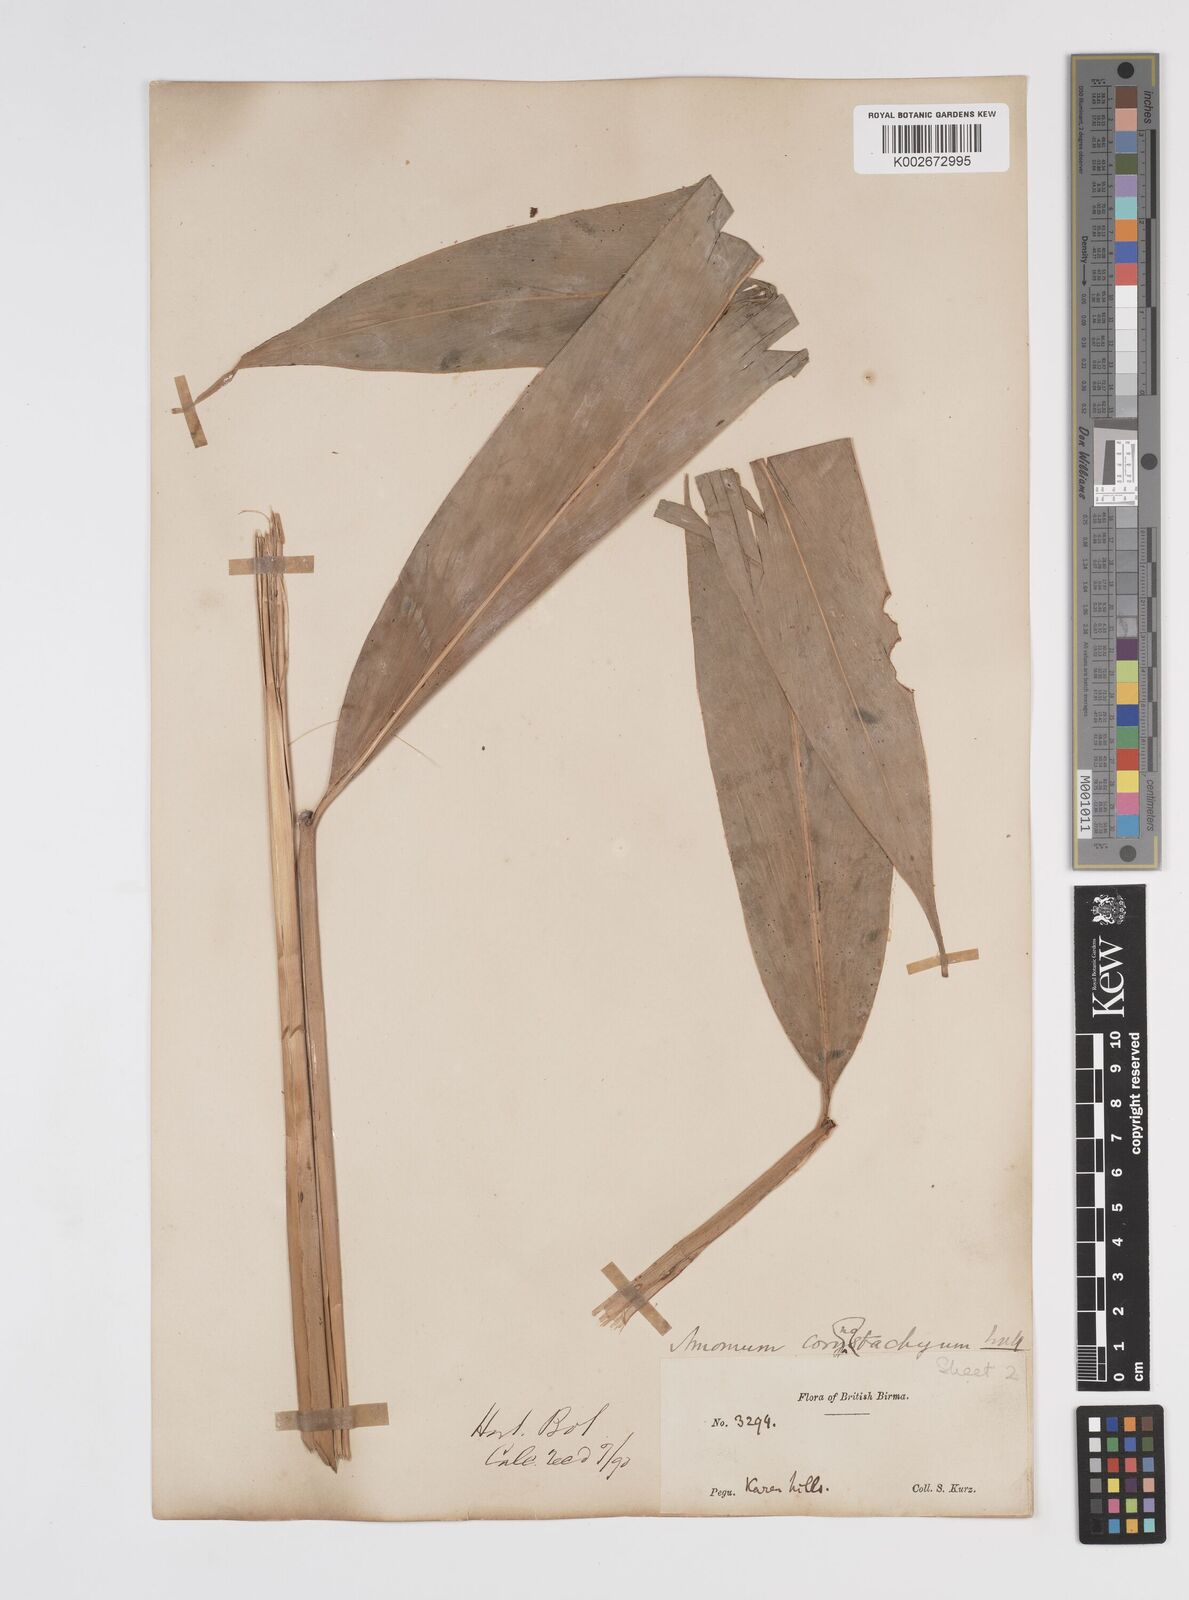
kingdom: Plantae
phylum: Tracheophyta
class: Liliopsida
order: Zingiberales
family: Zingiberaceae
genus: Meistera
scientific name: Meistera koenigii
